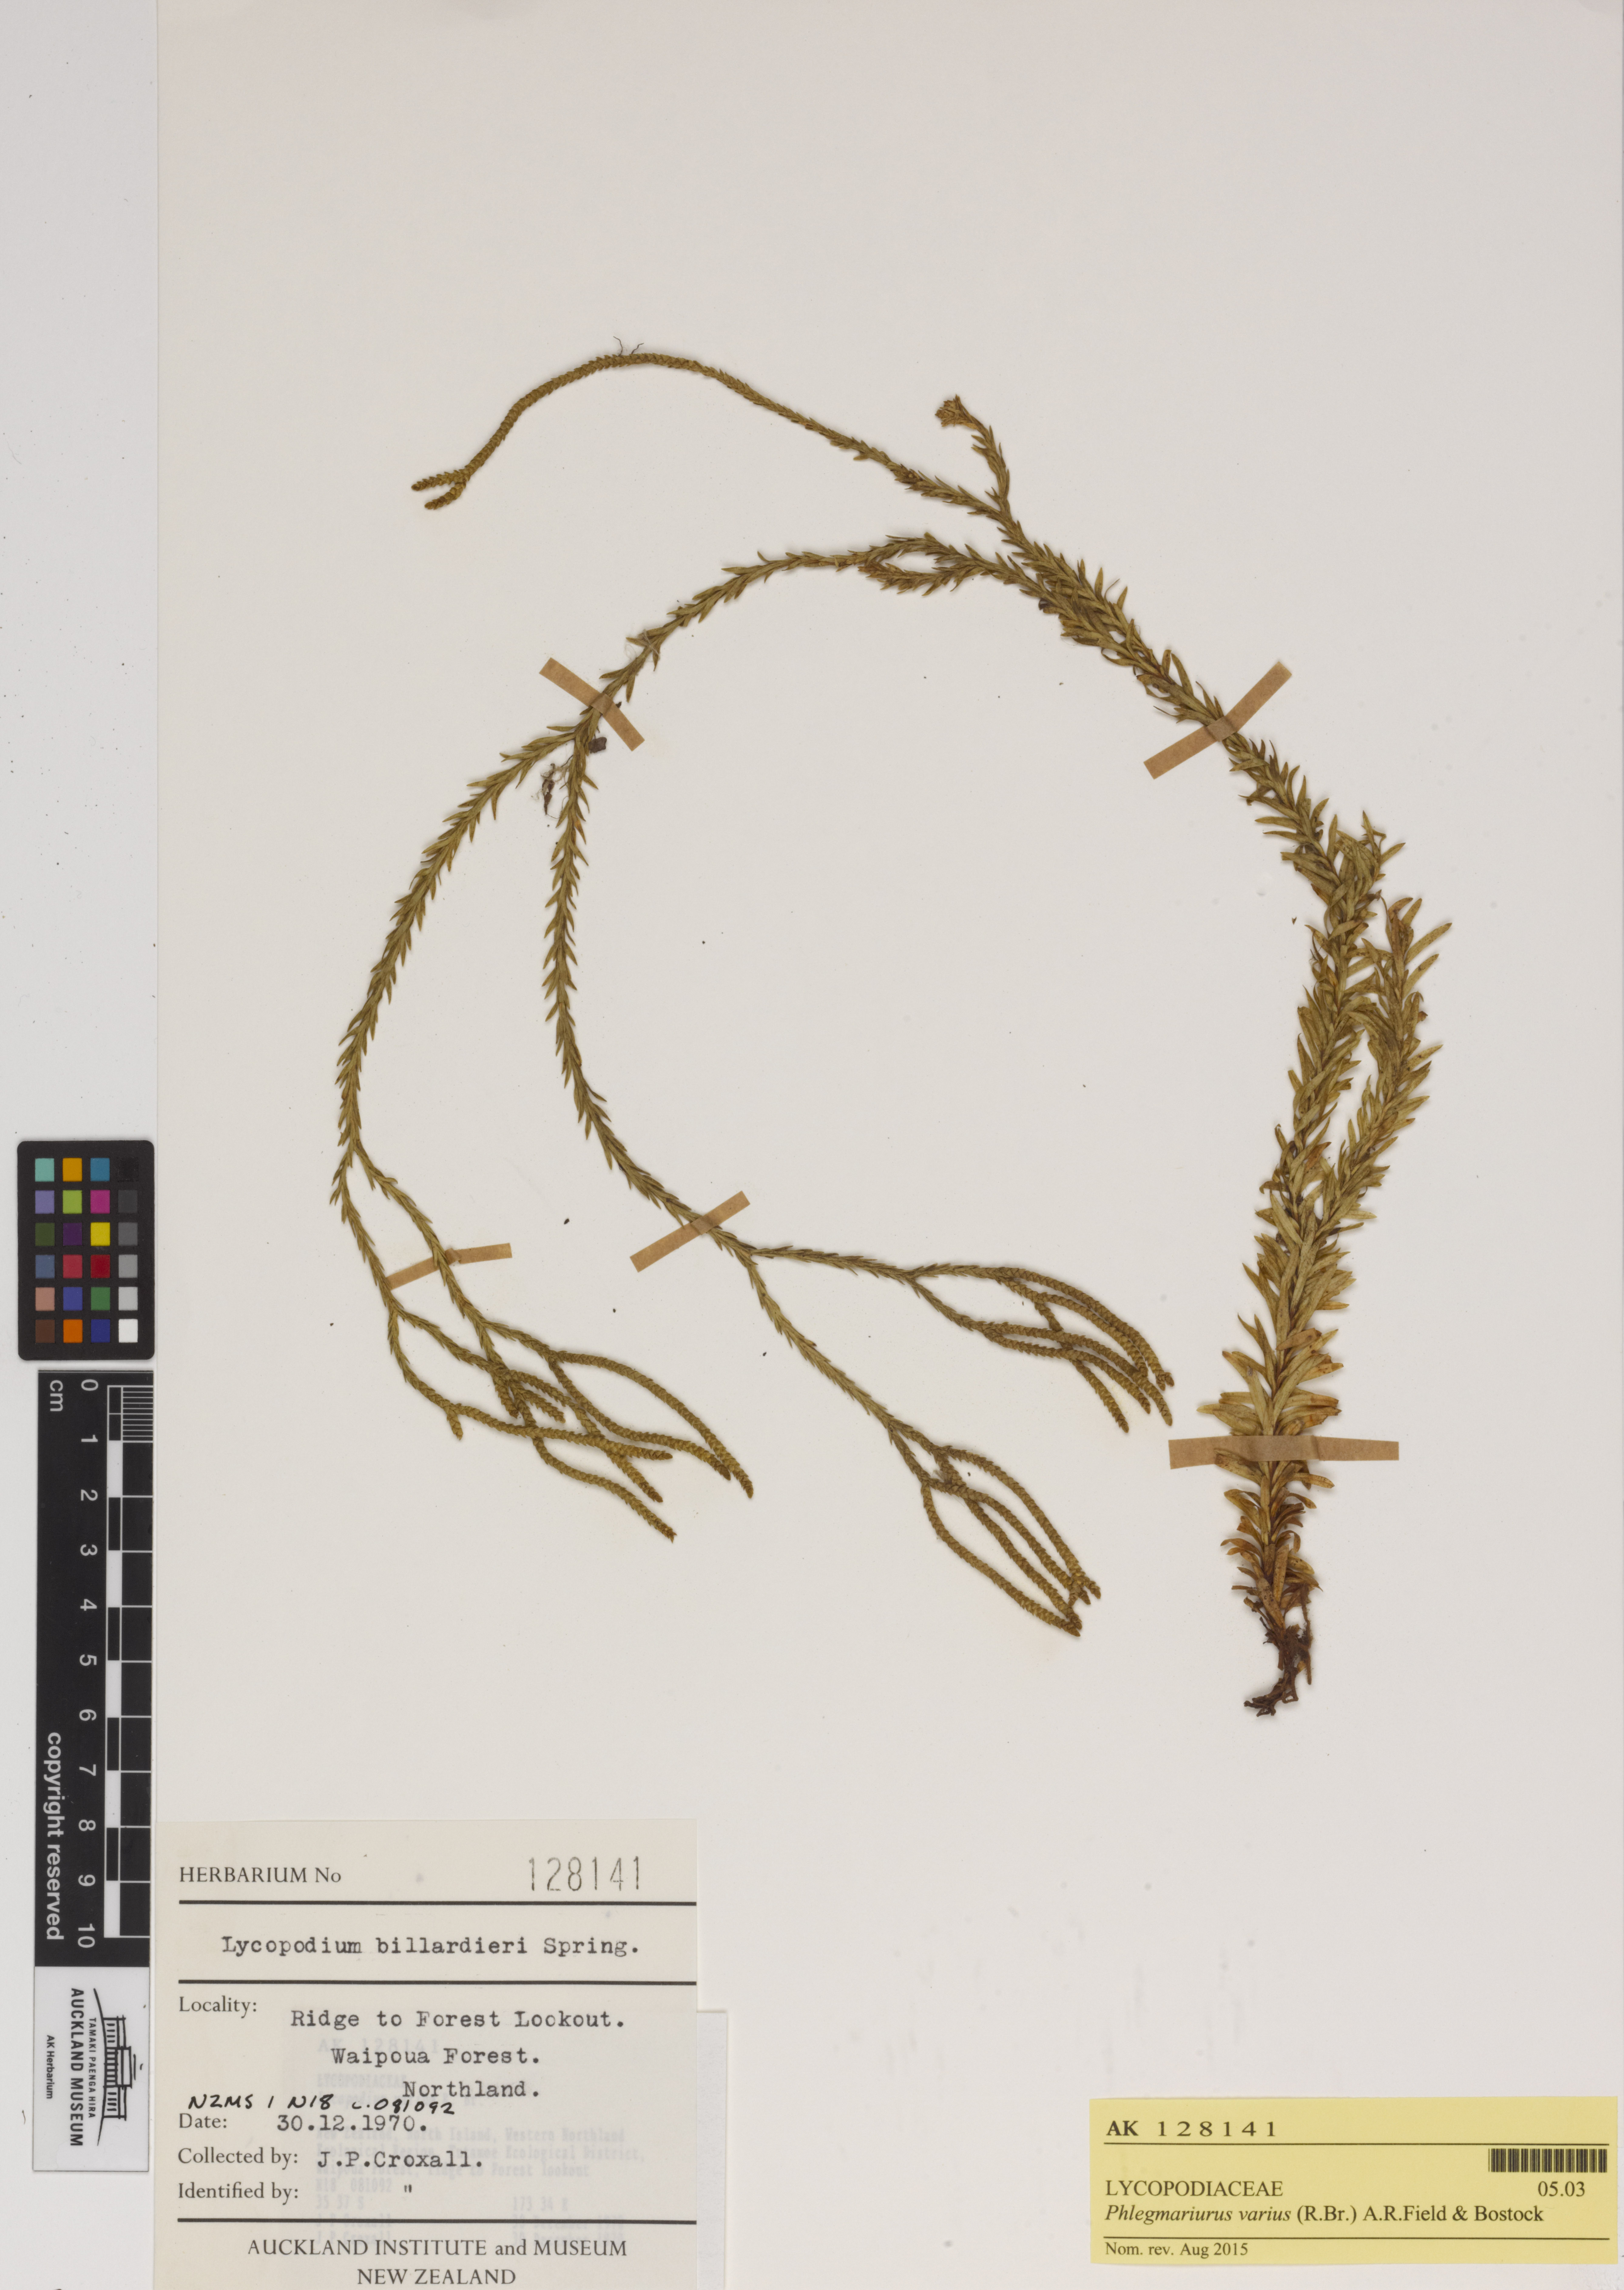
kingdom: Plantae
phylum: Tracheophyta
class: Lycopodiopsida
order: Lycopodiales
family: Lycopodiaceae
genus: Phlegmariurus
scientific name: Phlegmariurus billardierei
